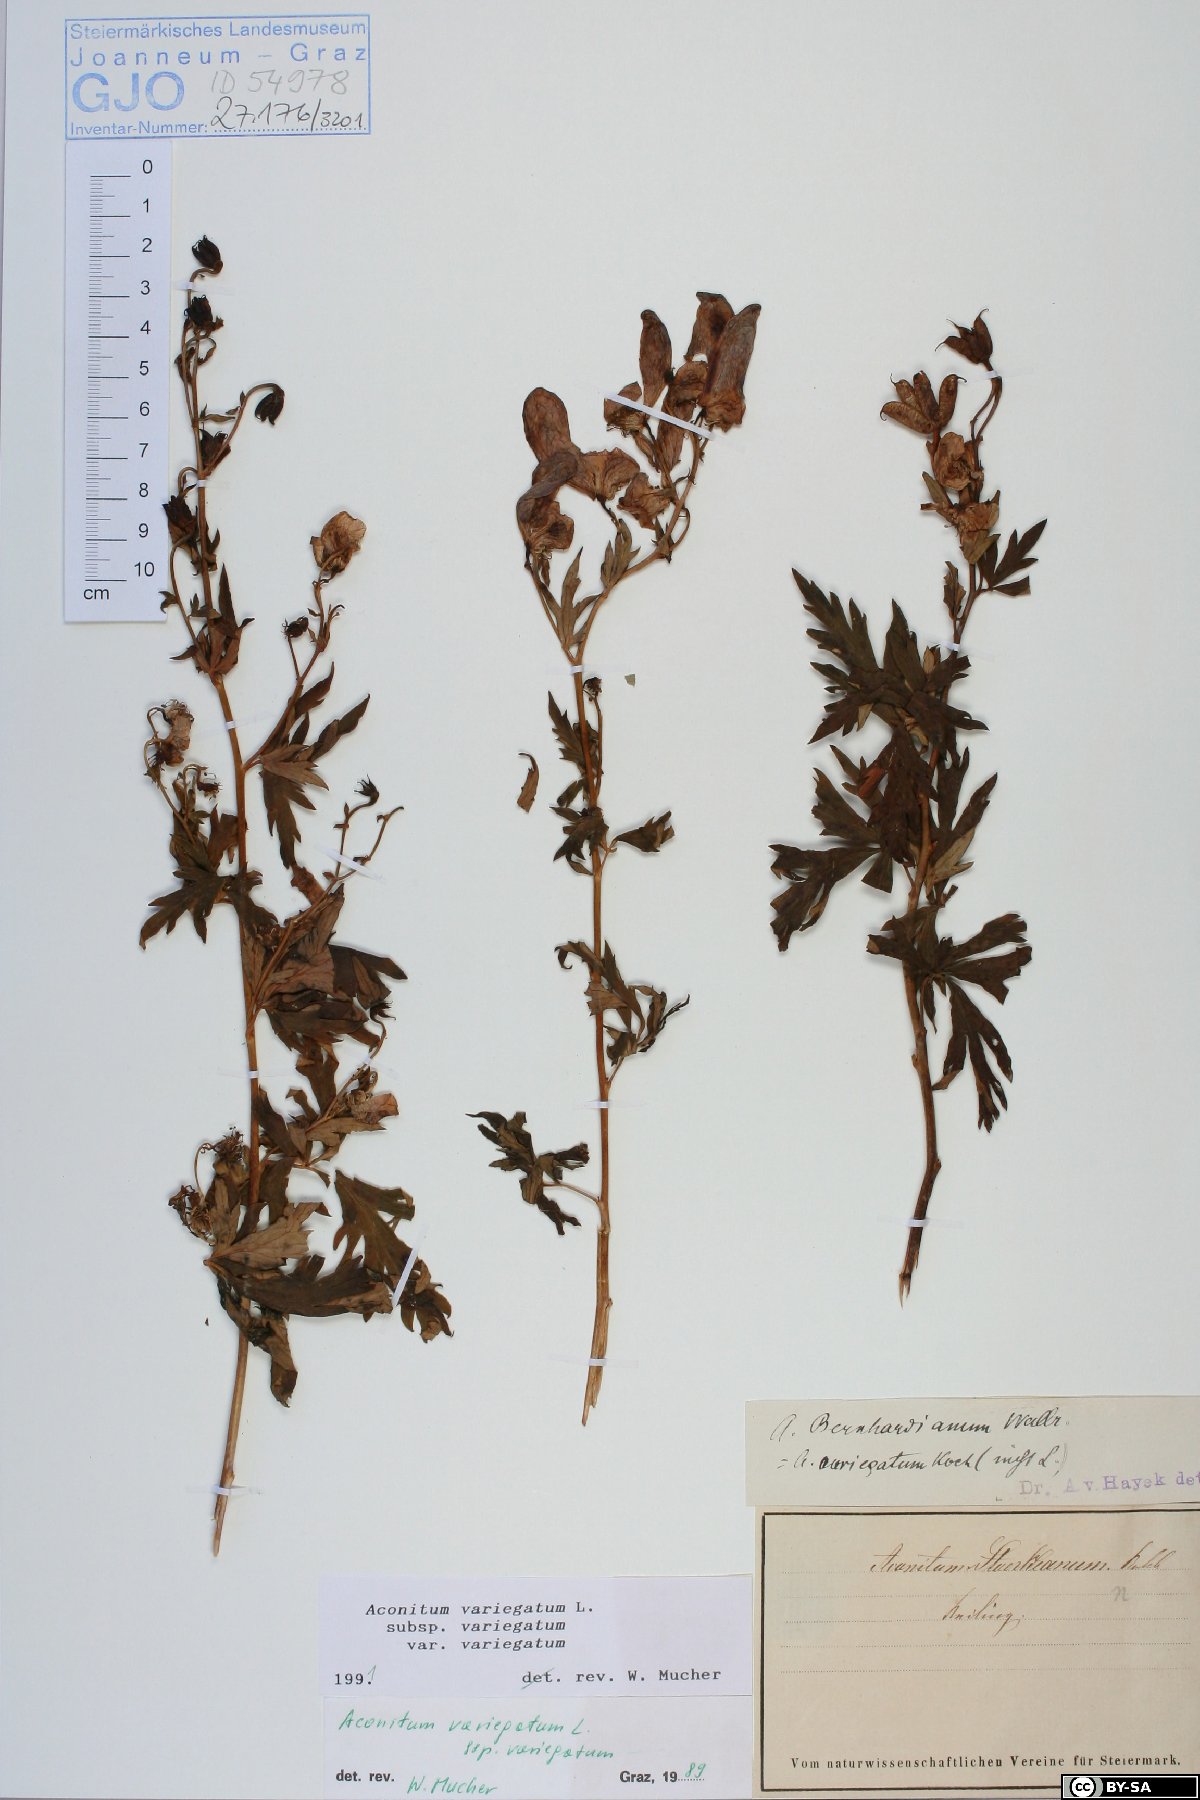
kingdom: Plantae
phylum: Tracheophyta
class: Magnoliopsida
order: Ranunculales
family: Ranunculaceae
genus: Aconitum
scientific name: Aconitum variegatum
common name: Manchurian monkshood
